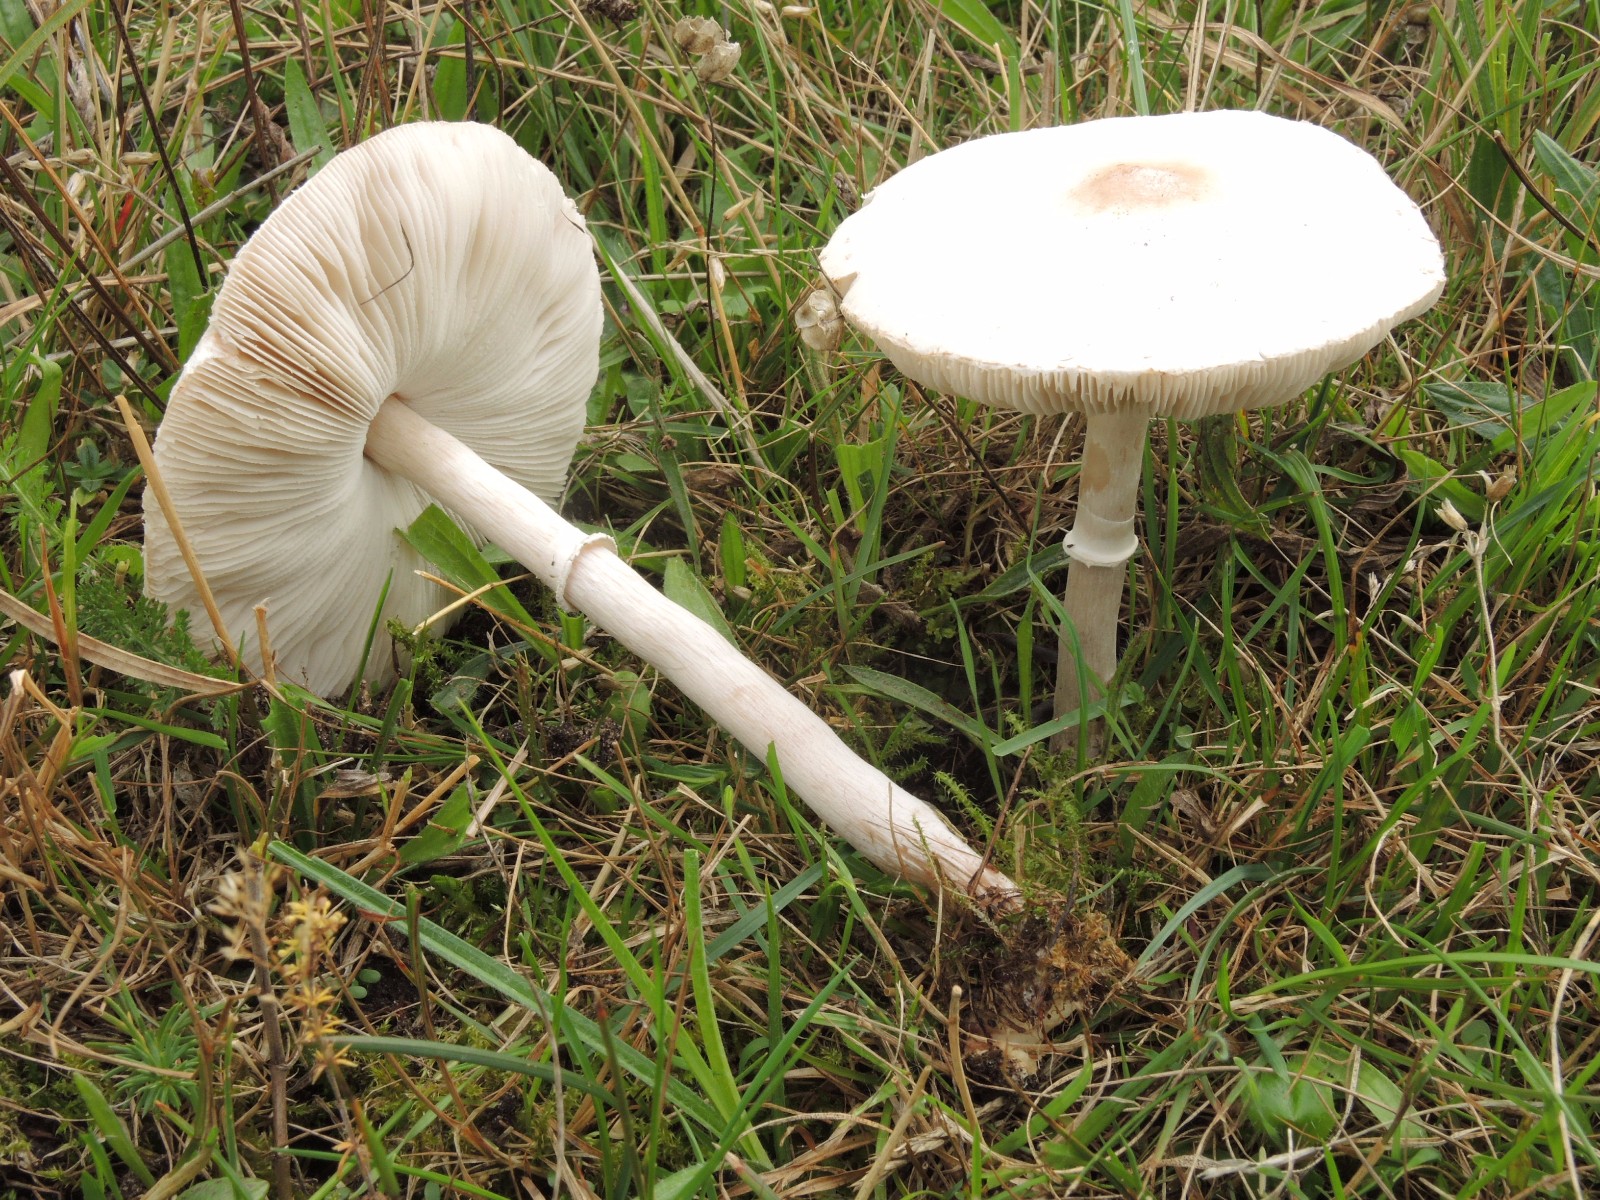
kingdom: Fungi
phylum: Basidiomycota
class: Agaricomycetes
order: Agaricales
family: Agaricaceae
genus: Macrolepiota
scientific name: Macrolepiota excoriata
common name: mark-kæmpeparasolhat
